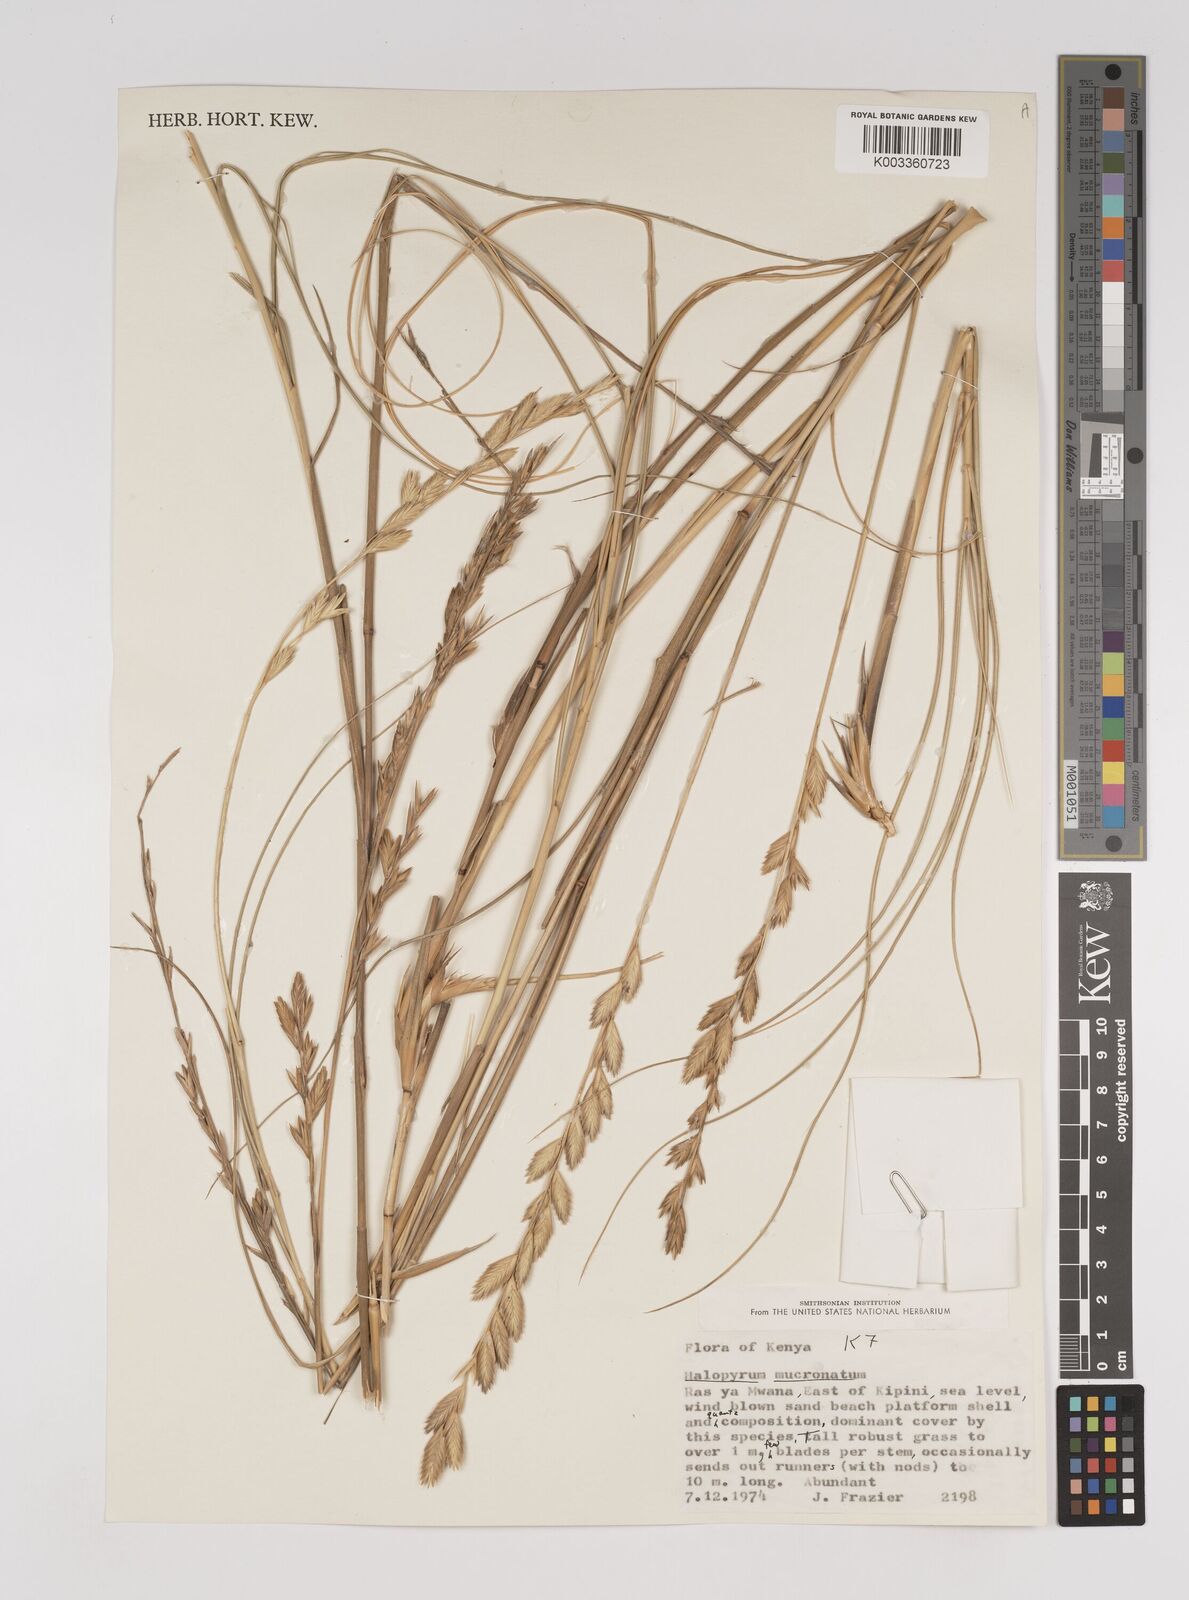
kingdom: Plantae
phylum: Tracheophyta
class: Liliopsida
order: Poales
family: Poaceae
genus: Halopyrum
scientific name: Halopyrum mucronatum
